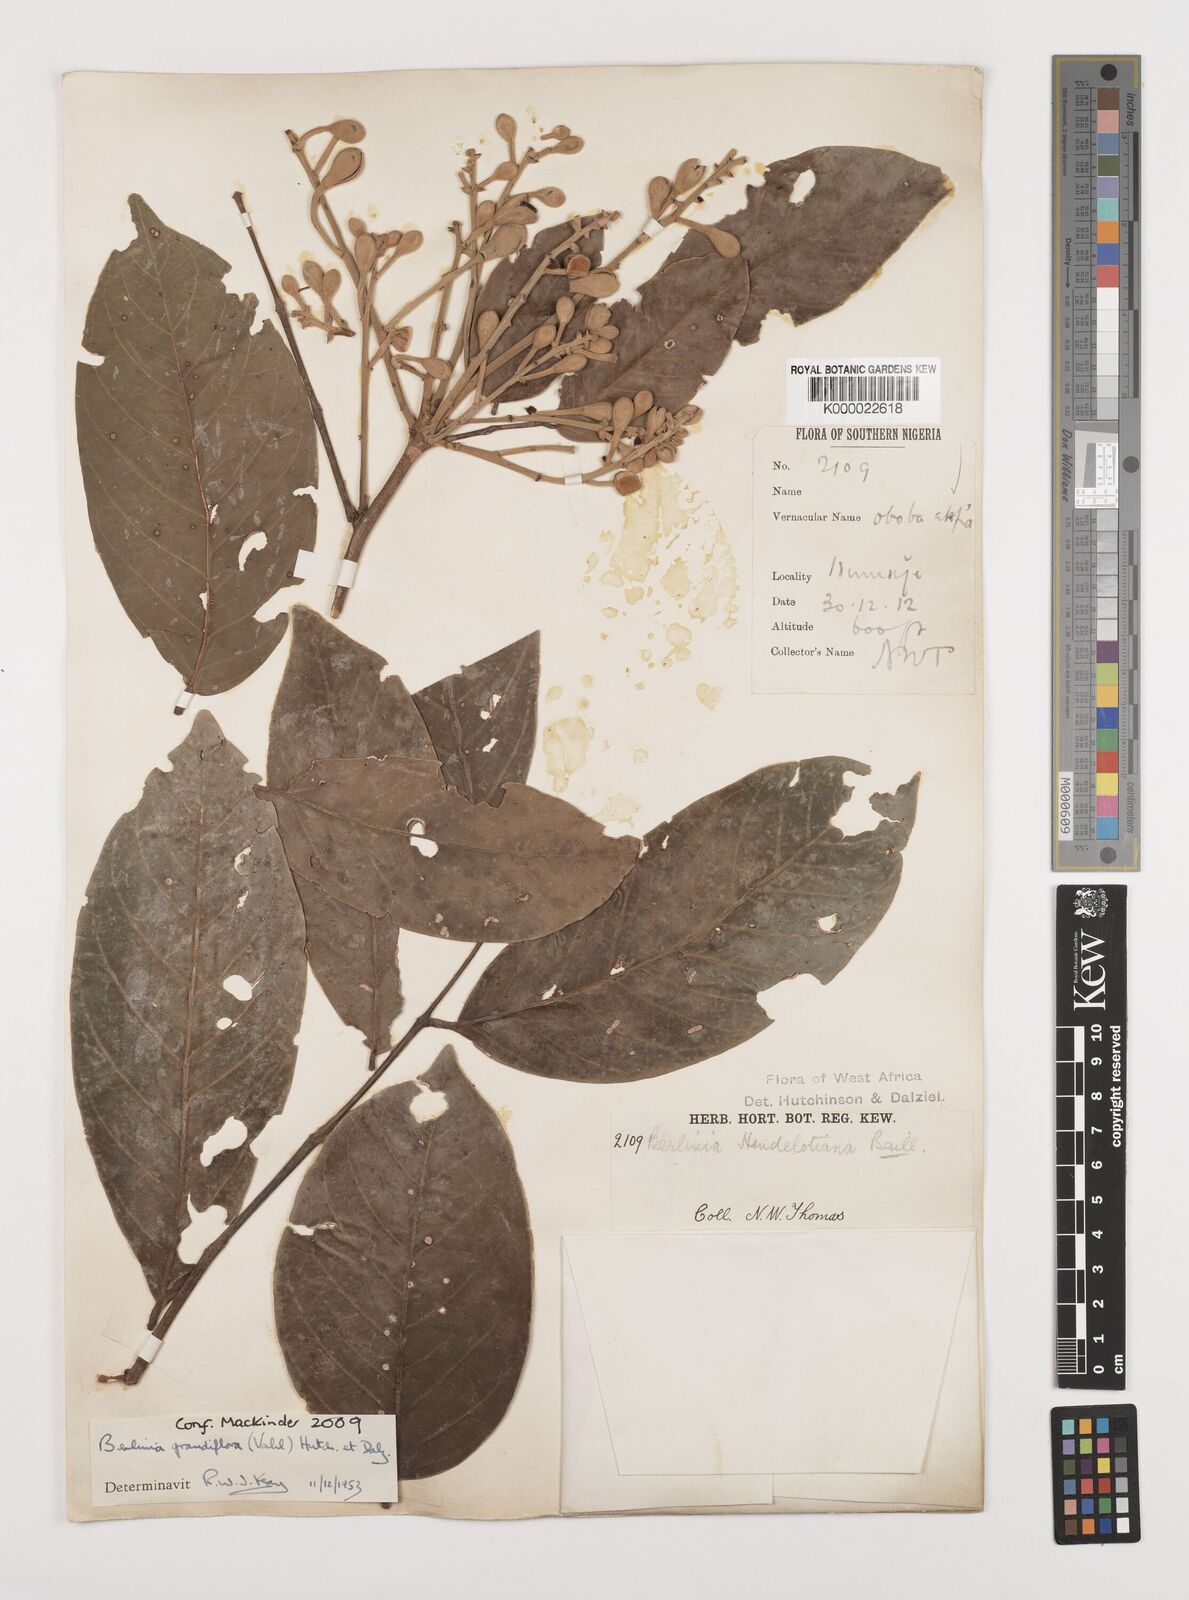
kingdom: Plantae
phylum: Tracheophyta
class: Magnoliopsida
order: Fabales
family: Fabaceae
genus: Berlinia
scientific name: Berlinia grandiflora
